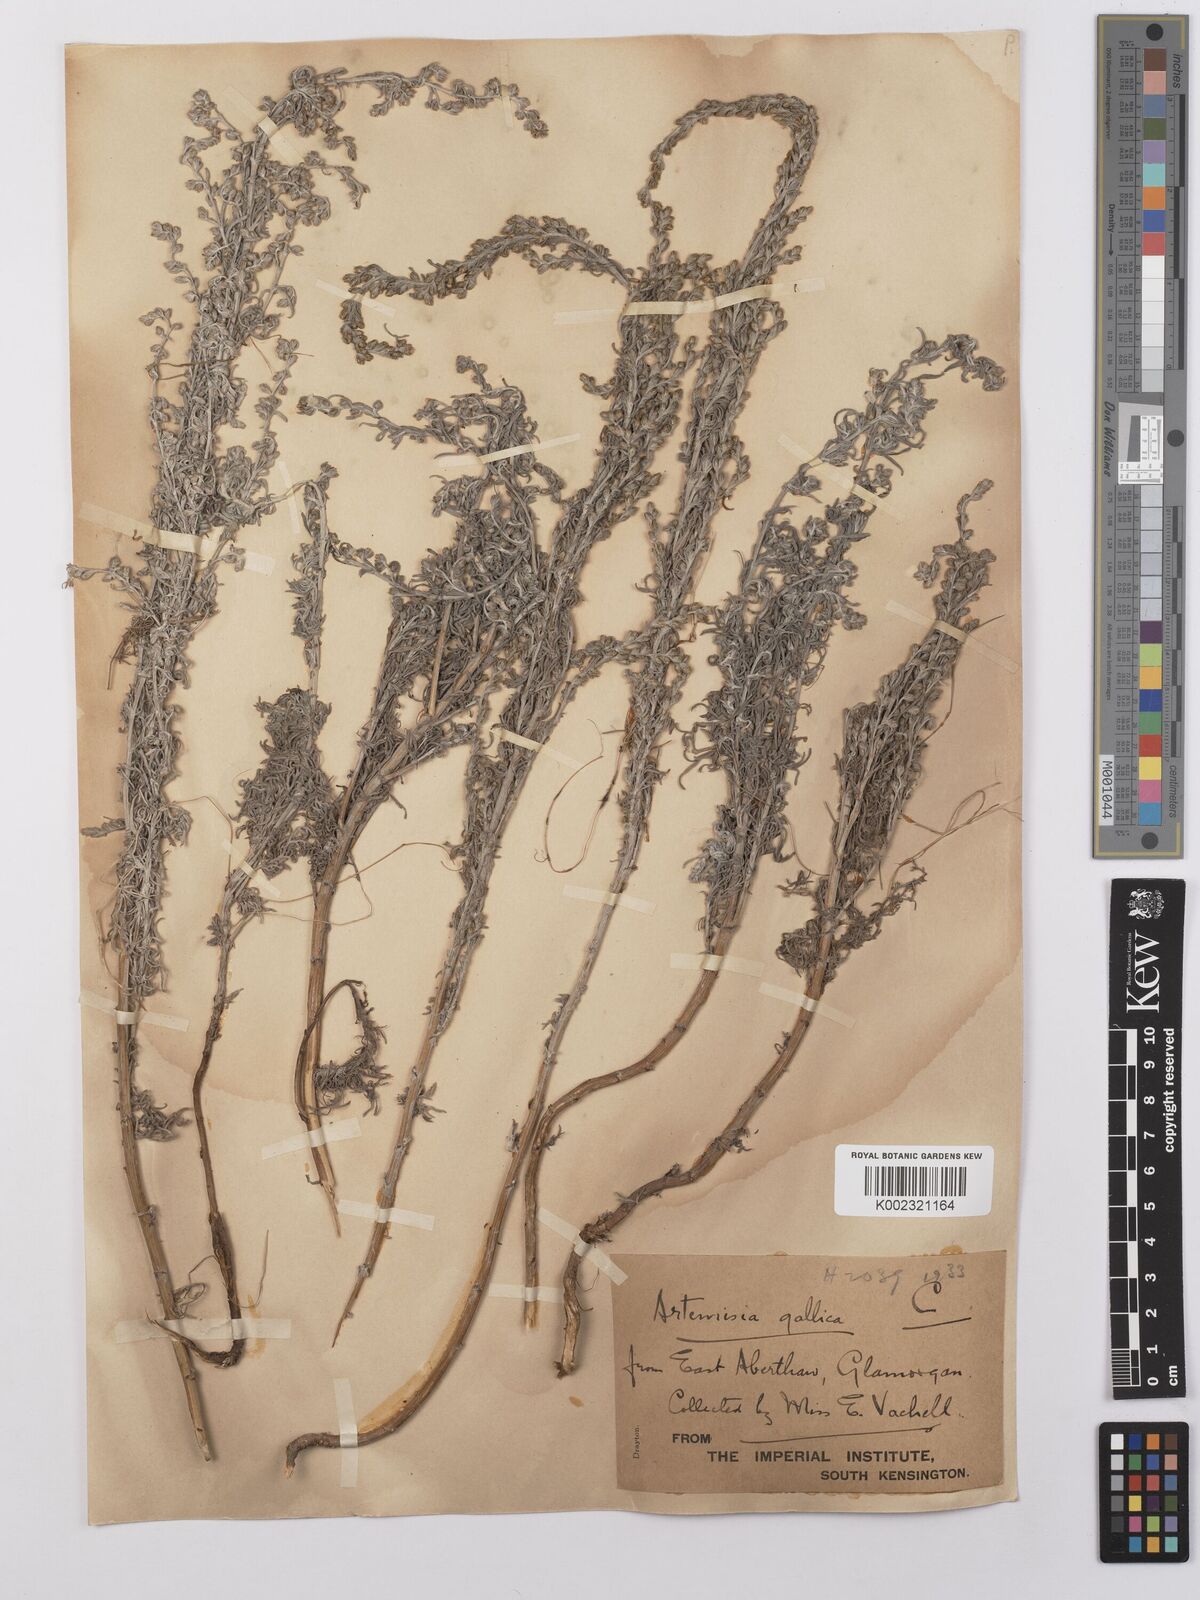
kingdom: Plantae
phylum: Tracheophyta
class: Magnoliopsida
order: Asterales
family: Asteraceae
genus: Artemisia
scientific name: Artemisia maritima
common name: Wormseed
